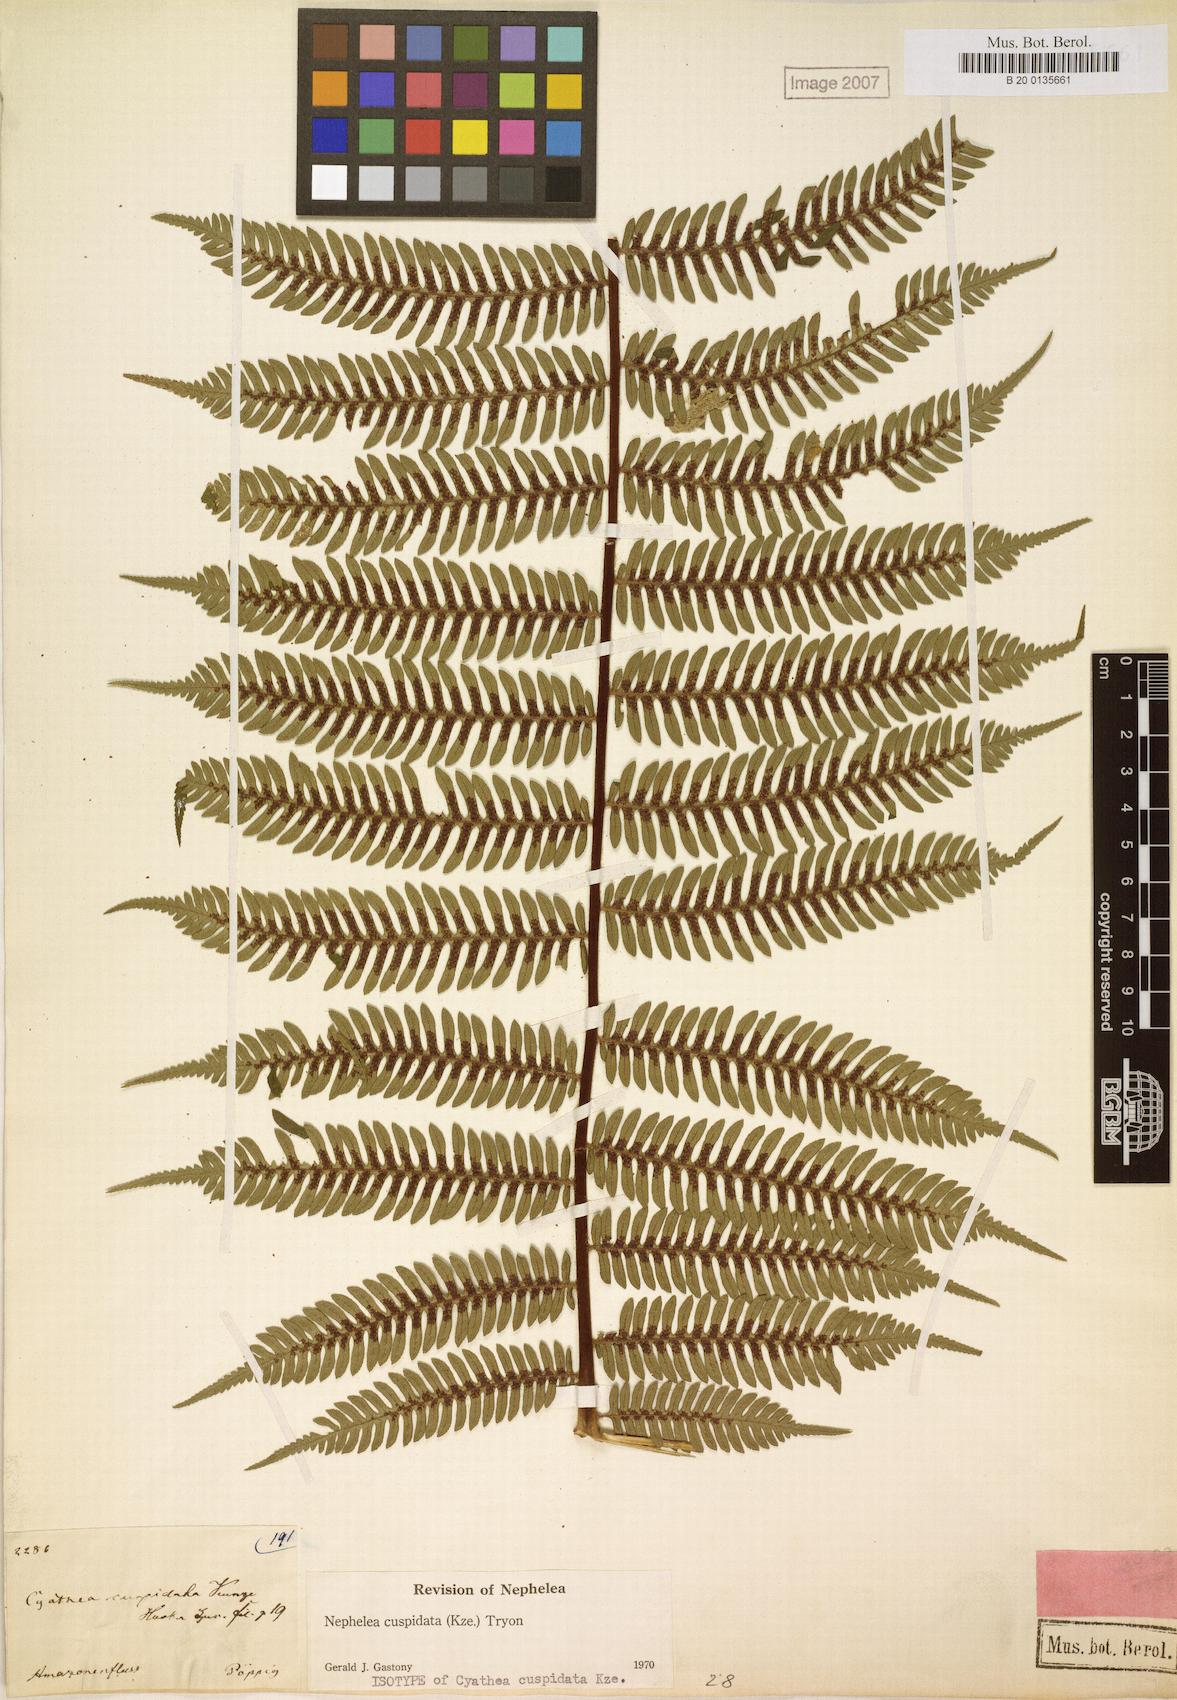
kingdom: Plantae
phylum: Tracheophyta
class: Polypodiopsida
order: Cyatheales
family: Cyatheaceae
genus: Alsophila
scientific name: Alsophila cuspidata
